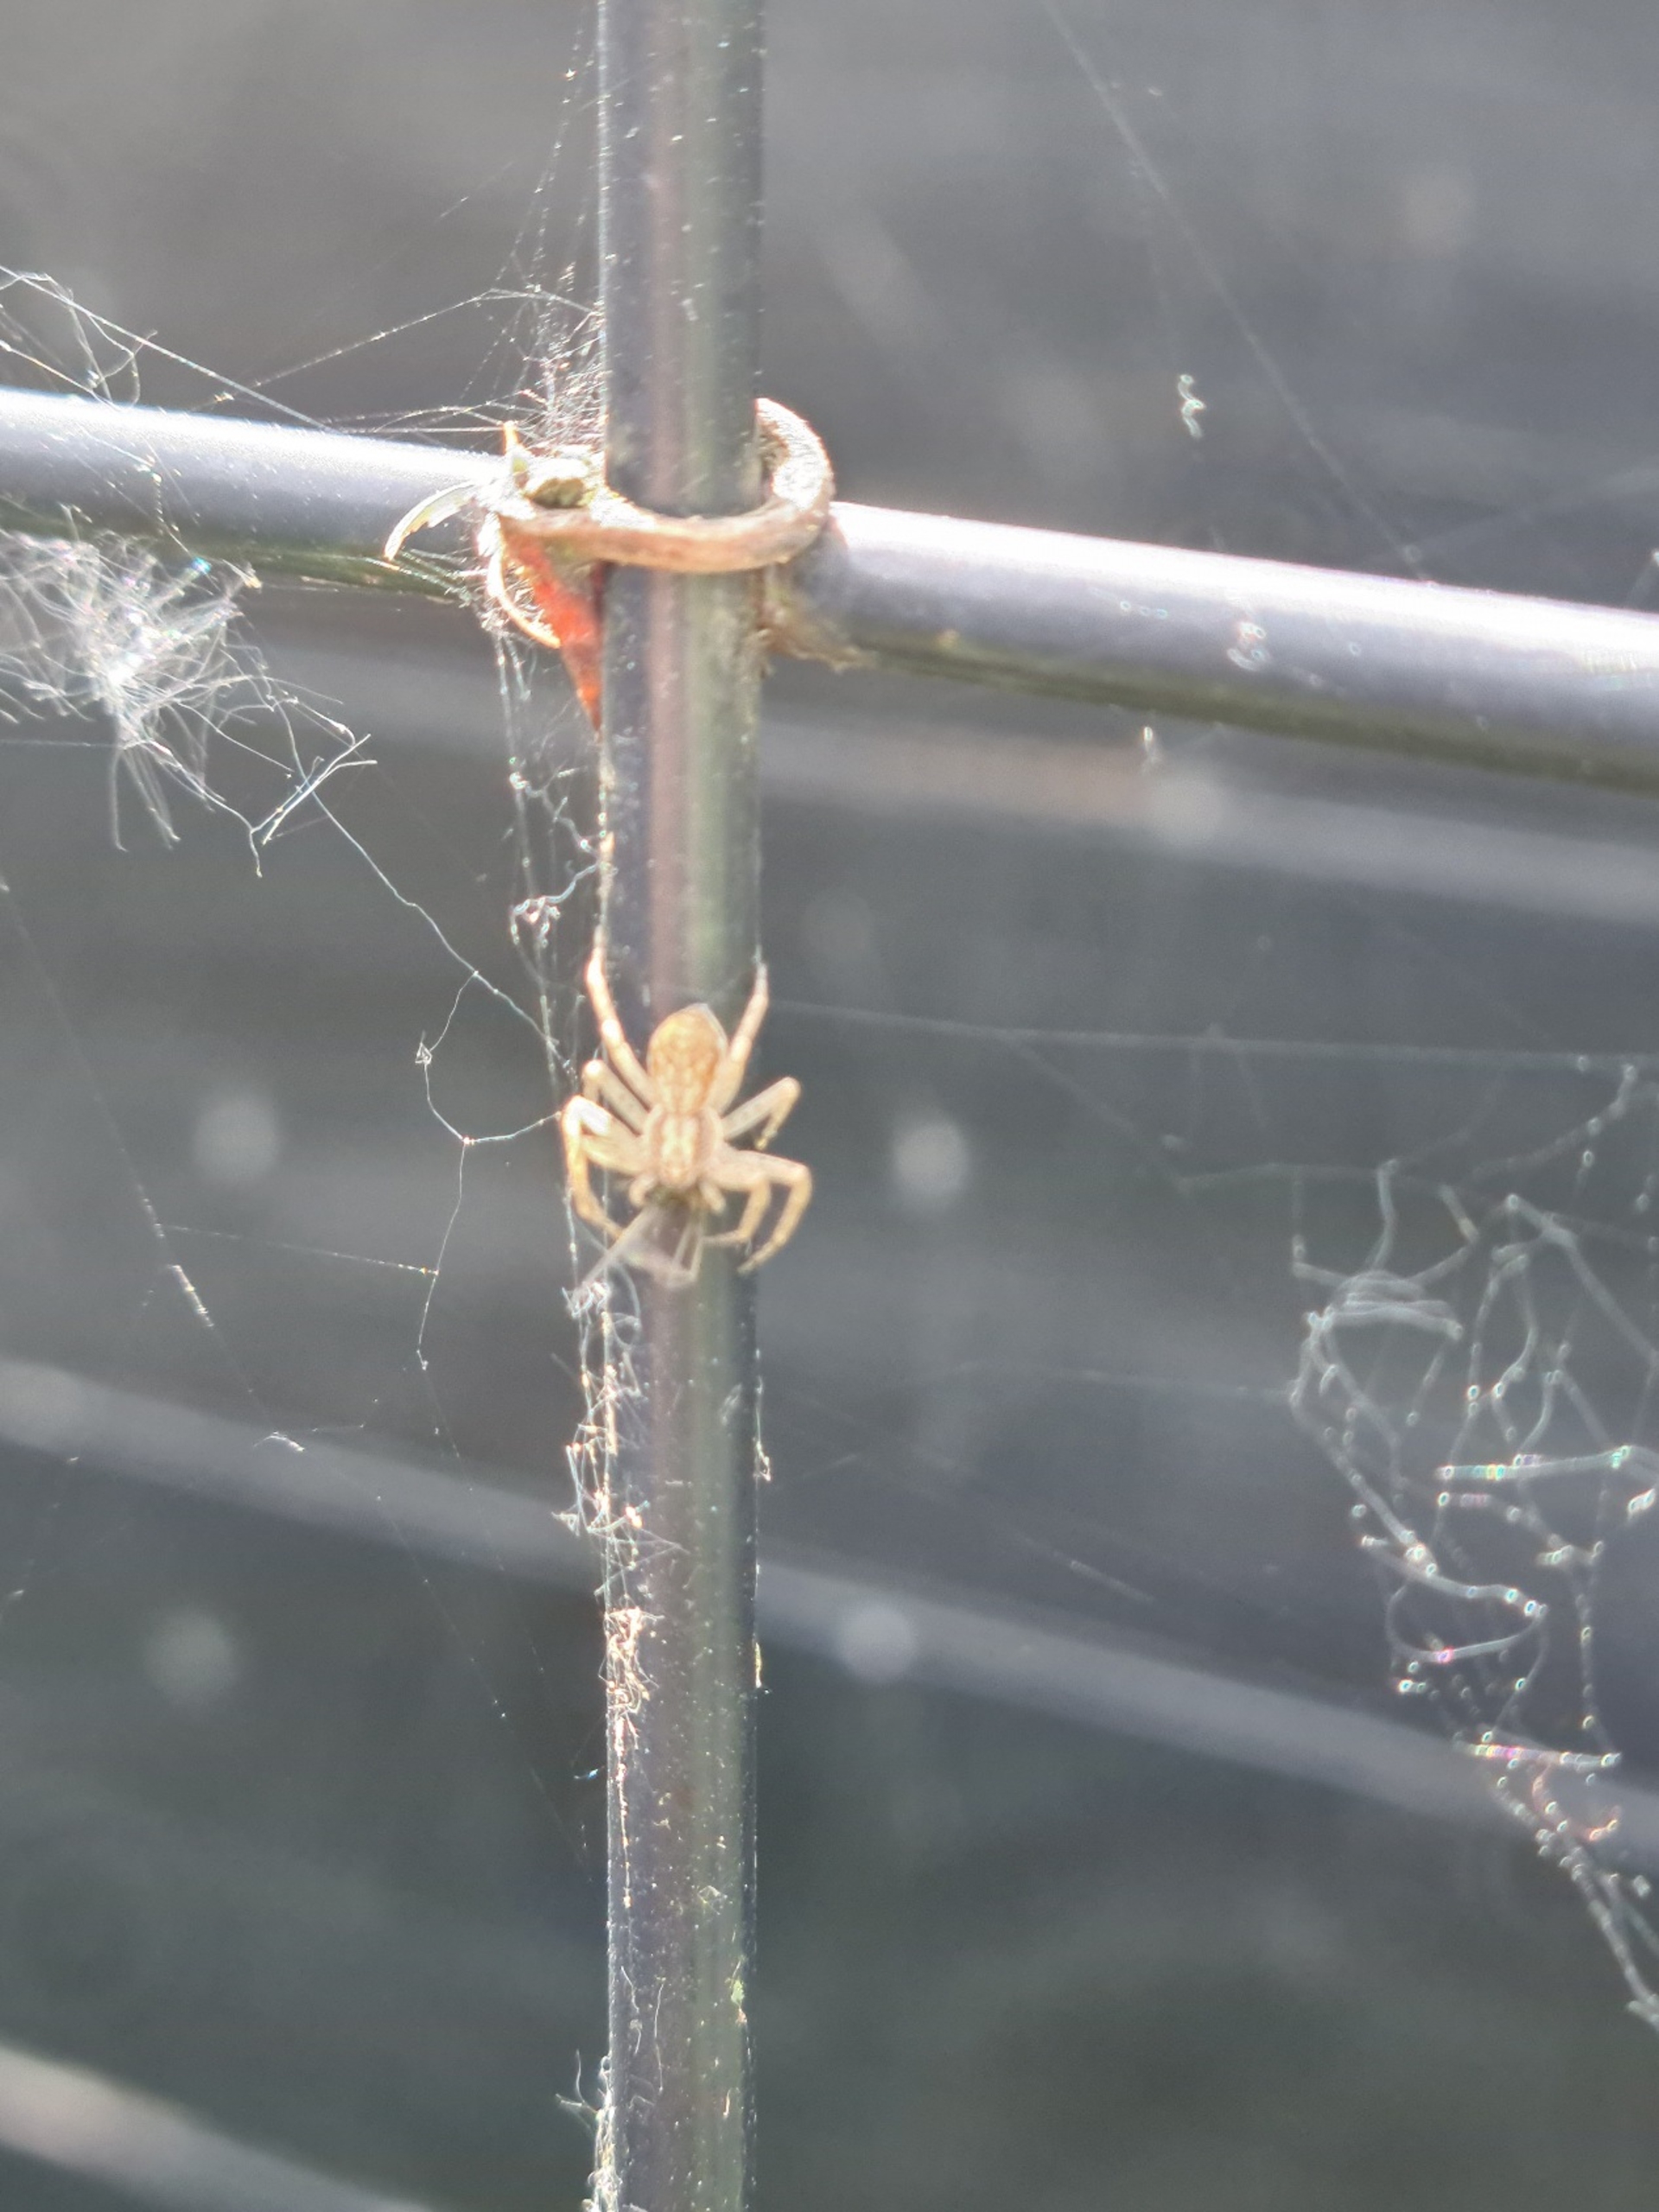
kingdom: Animalia
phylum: Arthropoda
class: Arachnida
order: Araneae
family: Philodromidae
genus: Philodromus
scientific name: Philodromus dispar
